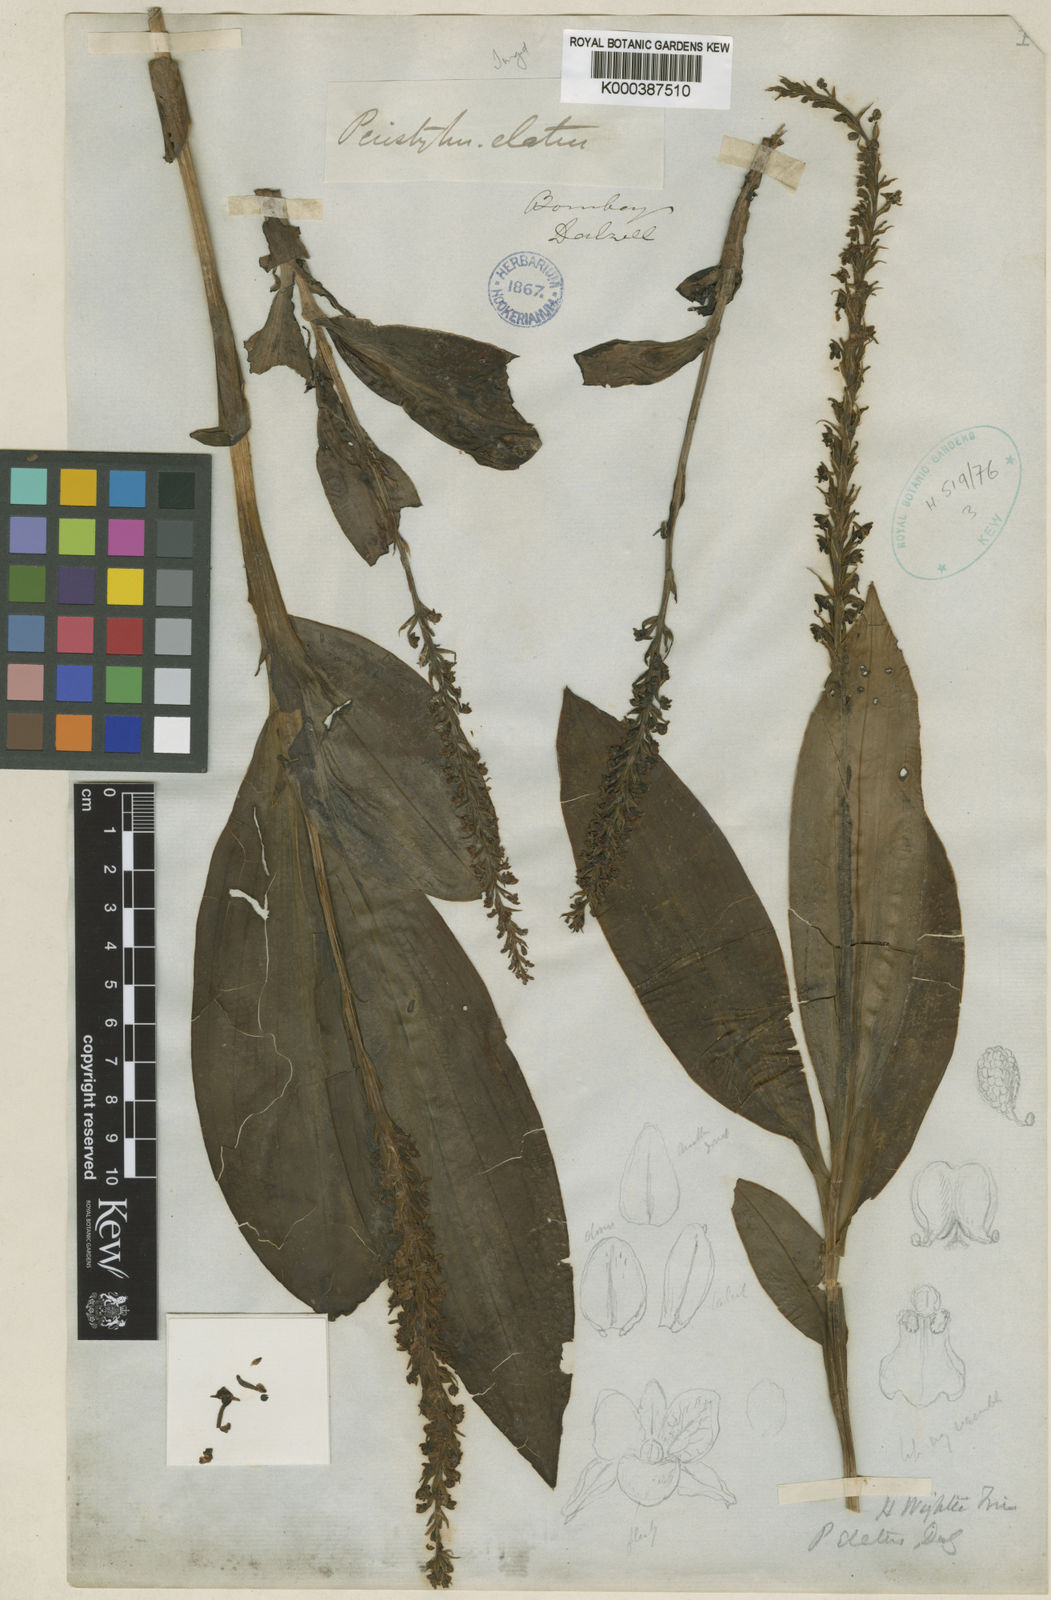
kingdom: Plantae
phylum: Tracheophyta
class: Liliopsida
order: Asparagales
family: Orchidaceae
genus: Peristylus
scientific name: Peristylus plantagineus
